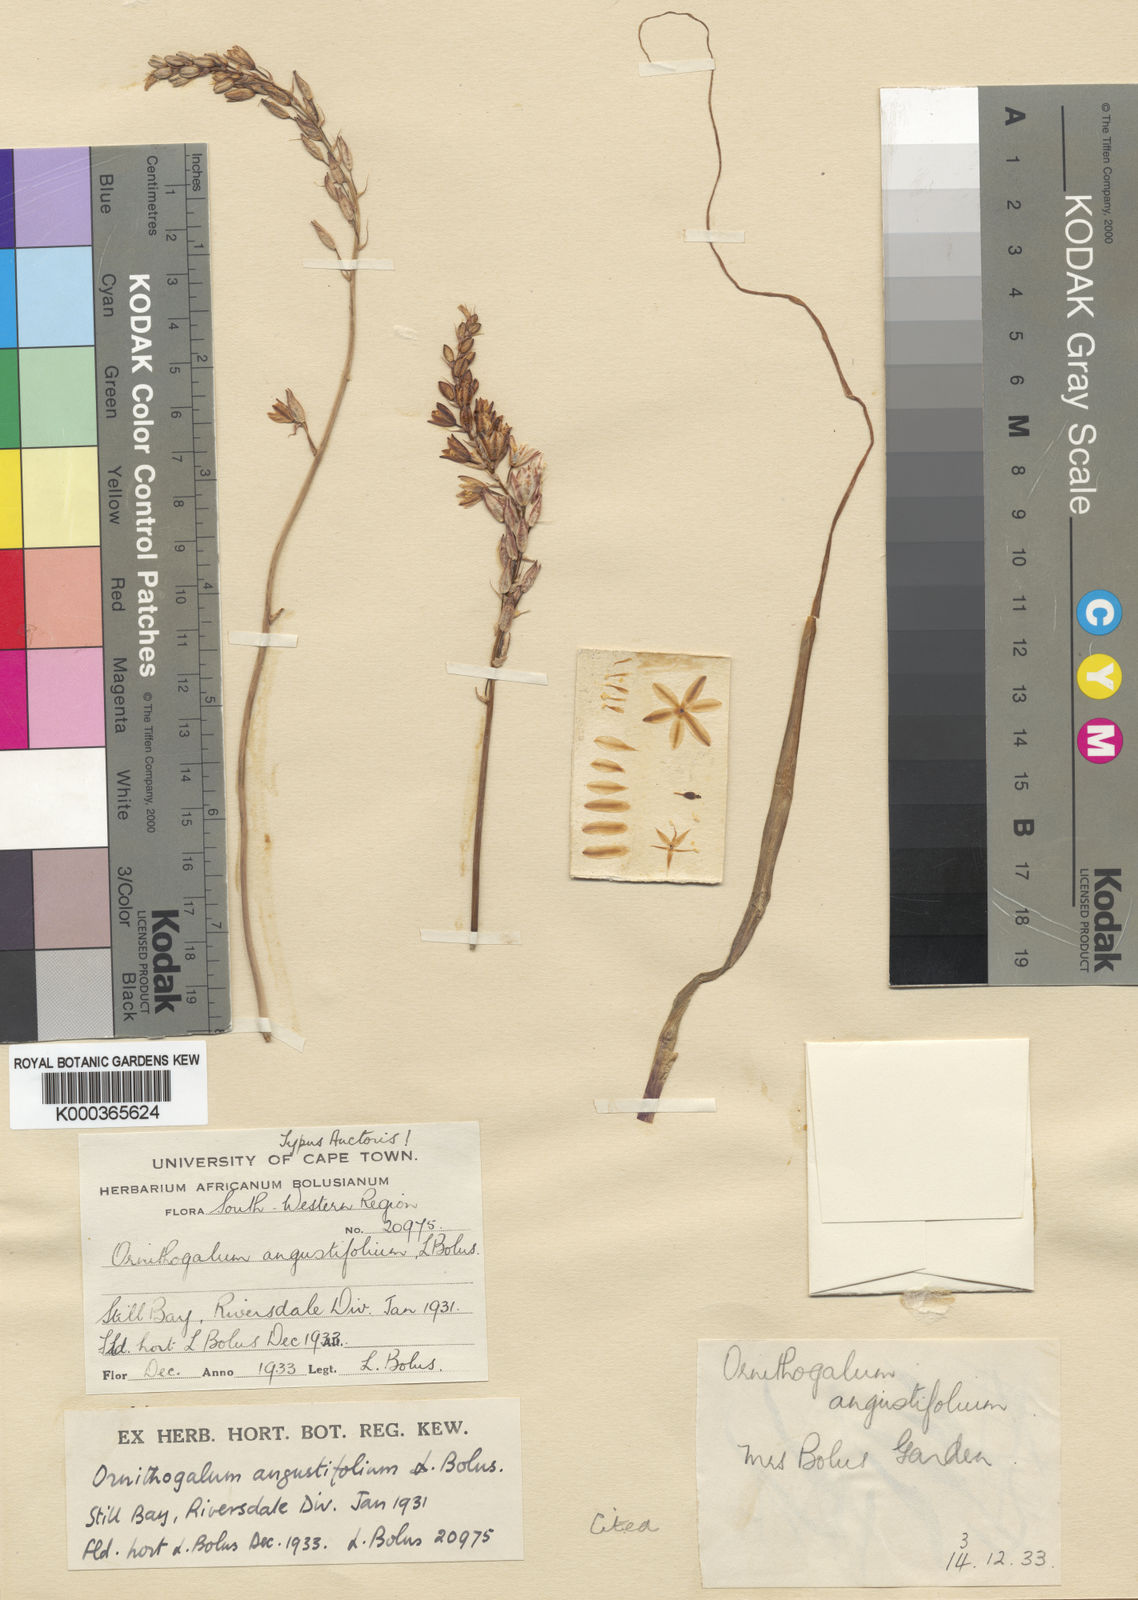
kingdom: Plantae
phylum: Tracheophyta
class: Liliopsida
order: Asparagales
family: Asparagaceae
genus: Ornithogalum
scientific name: Ornithogalum graminifolium
